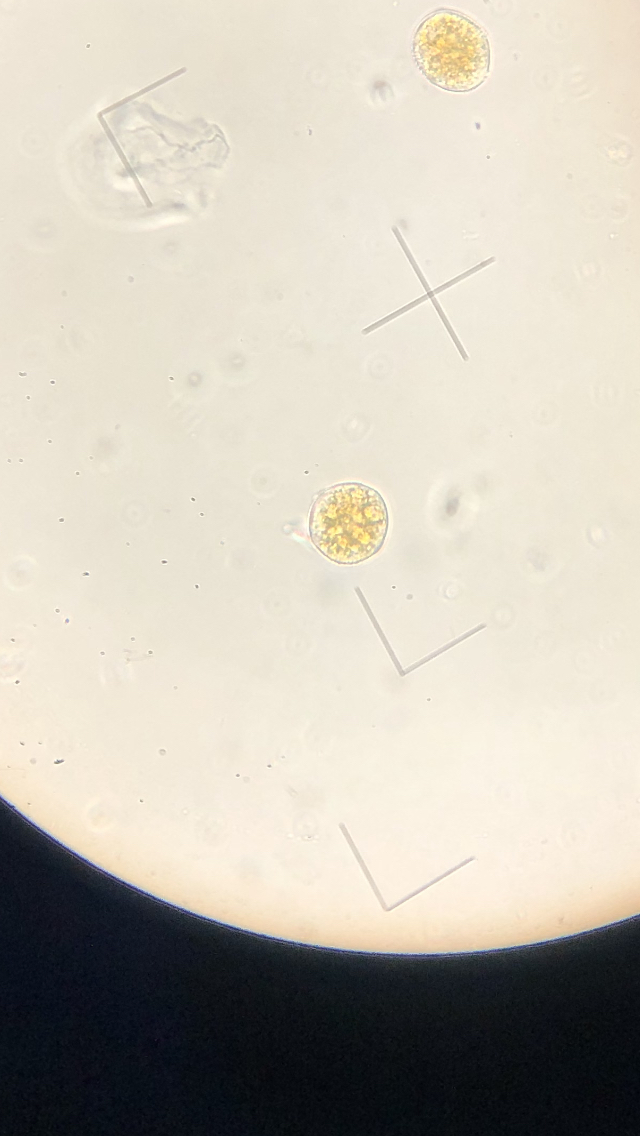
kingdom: Fungi
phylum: Basidiomycota
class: Pucciniomycetes
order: Pucciniales
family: Pucciniaceae
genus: Uromyces
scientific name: Uromyces dactylidis
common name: ranunkel-encellerust
